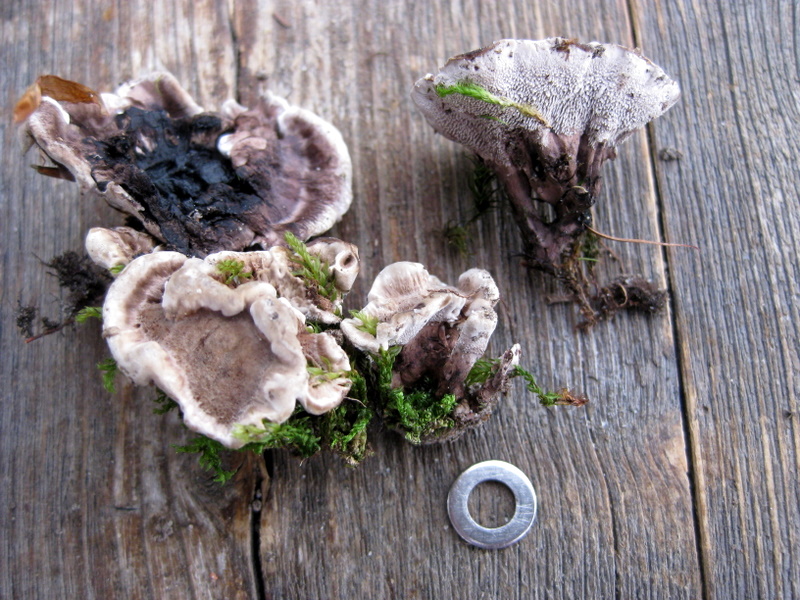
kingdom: Fungi
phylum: Basidiomycota
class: Agaricomycetes
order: Thelephorales
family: Thelephoraceae
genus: Phellodon
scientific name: Phellodon confluens
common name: pjaltet duftpigsvamp
